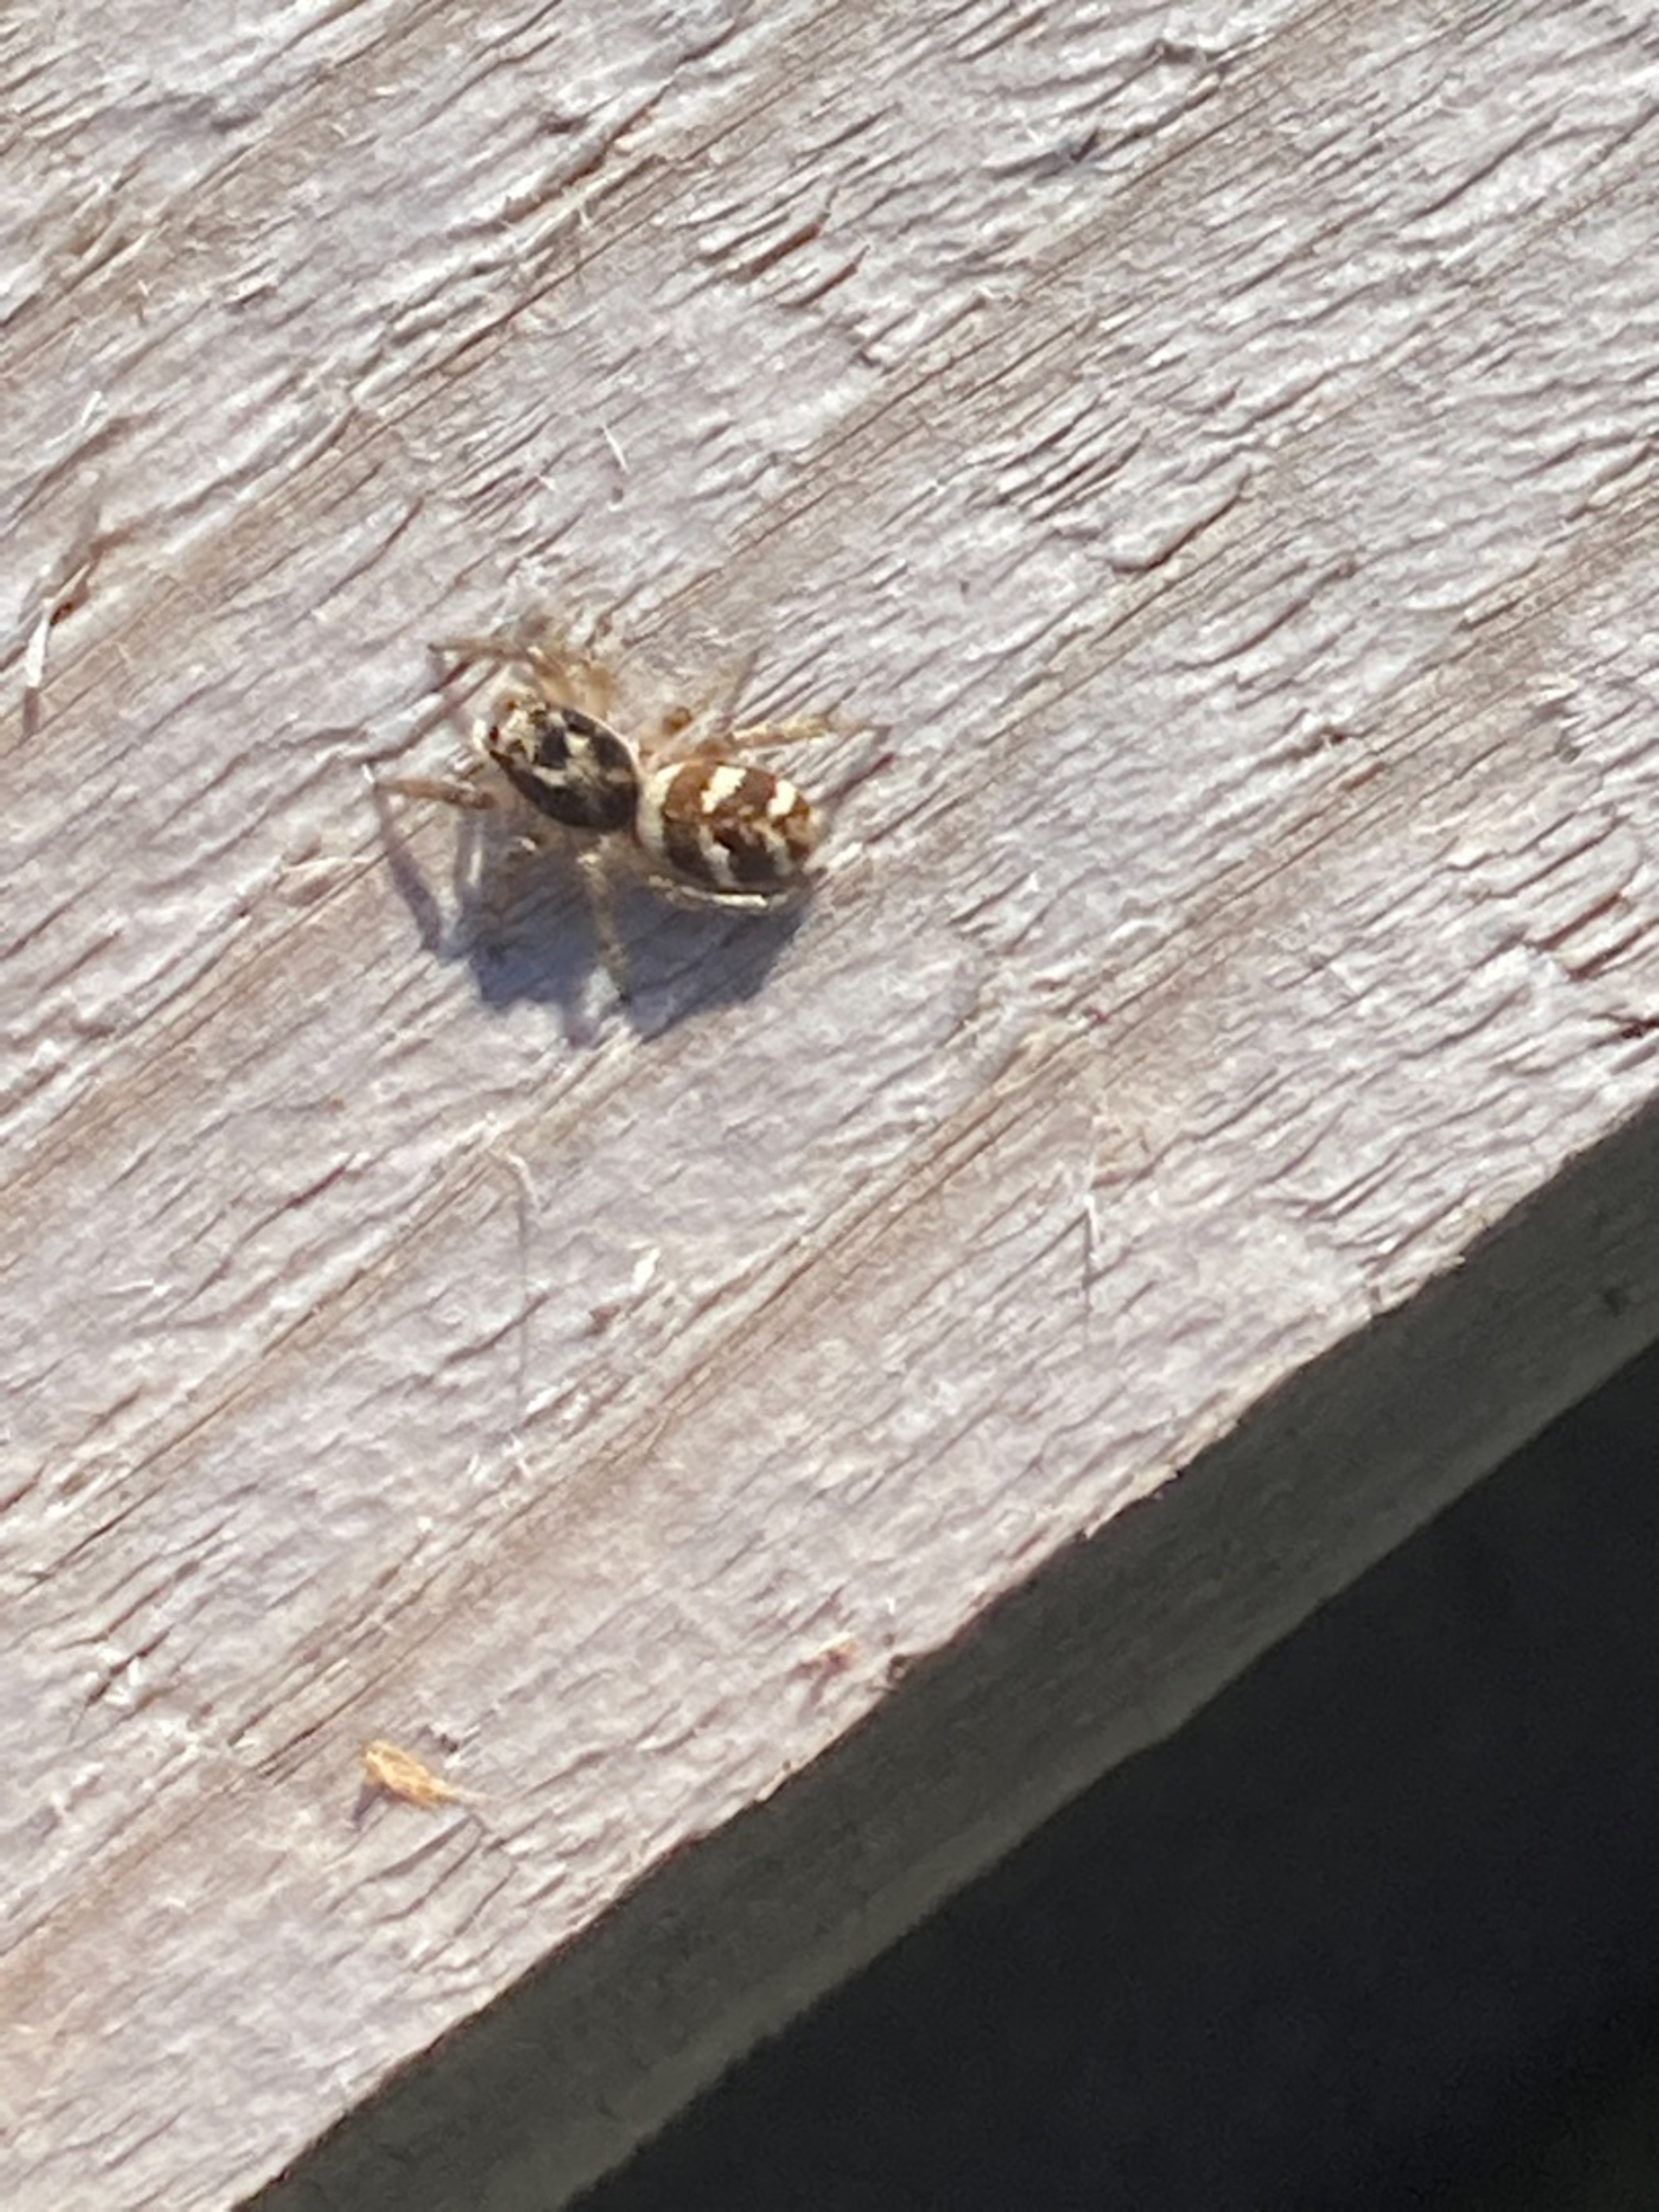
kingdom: Animalia
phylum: Arthropoda
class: Arachnida
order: Araneae
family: Salticidae
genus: Salticus
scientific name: Salticus scenicus
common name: Almindelig zebraedderkop
